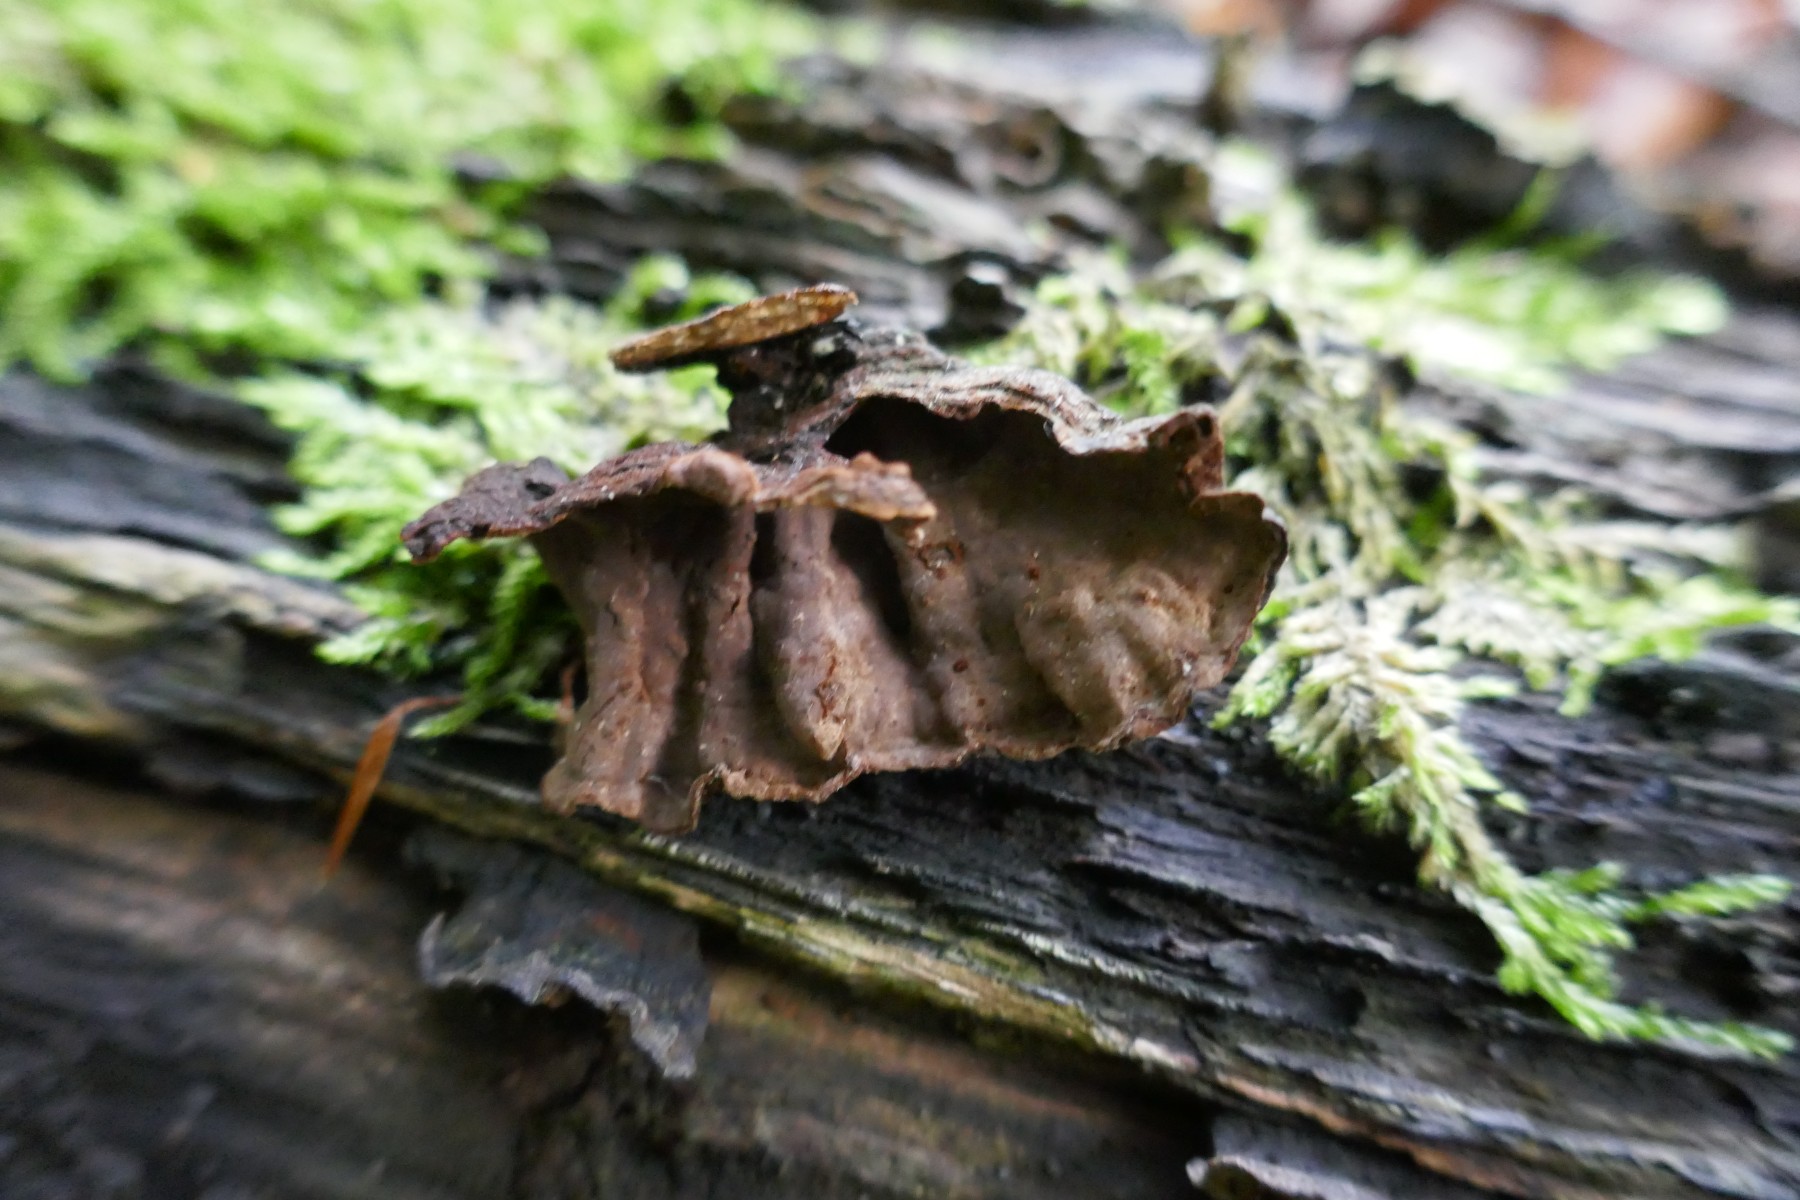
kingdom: Fungi
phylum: Basidiomycota
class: Agaricomycetes
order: Hymenochaetales
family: Hymenochaetaceae
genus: Hymenochaete
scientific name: Hymenochaete rubiginosa
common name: stiv ruslædersvamp
